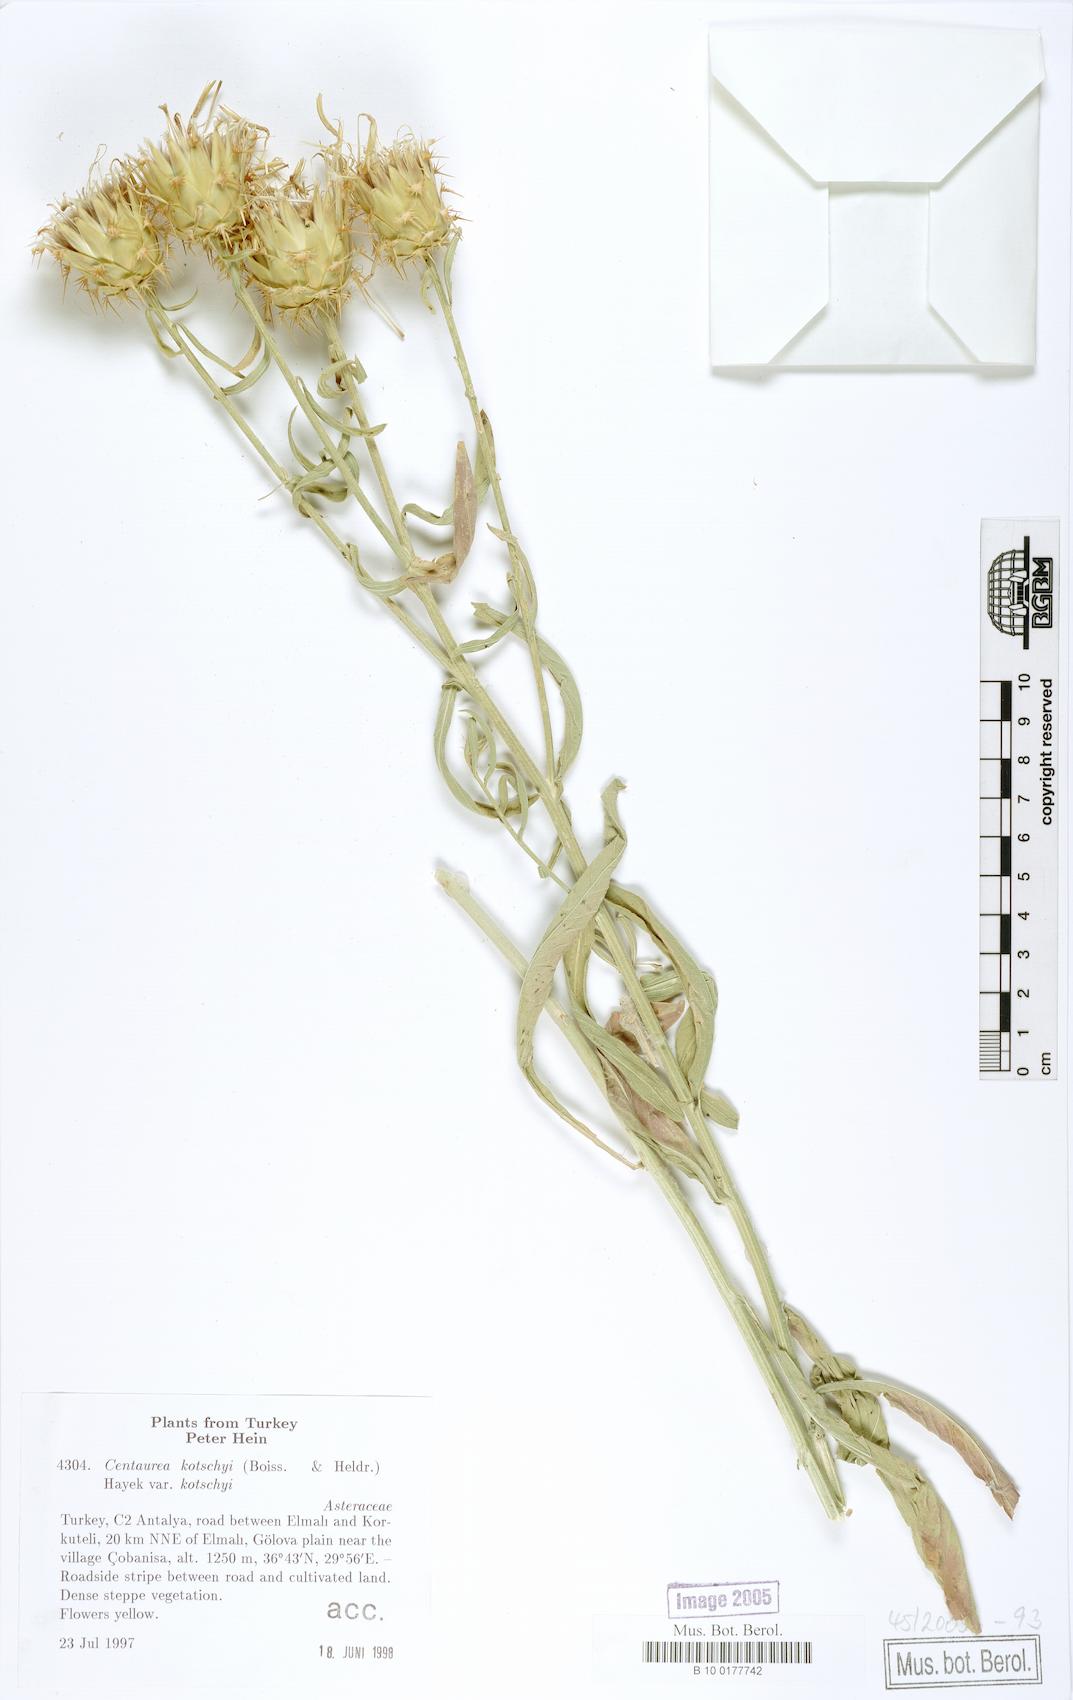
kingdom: Plantae
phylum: Tracheophyta
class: Magnoliopsida
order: Asterales
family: Asteraceae
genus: Centaurea
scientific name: Centaurea kotschyi
